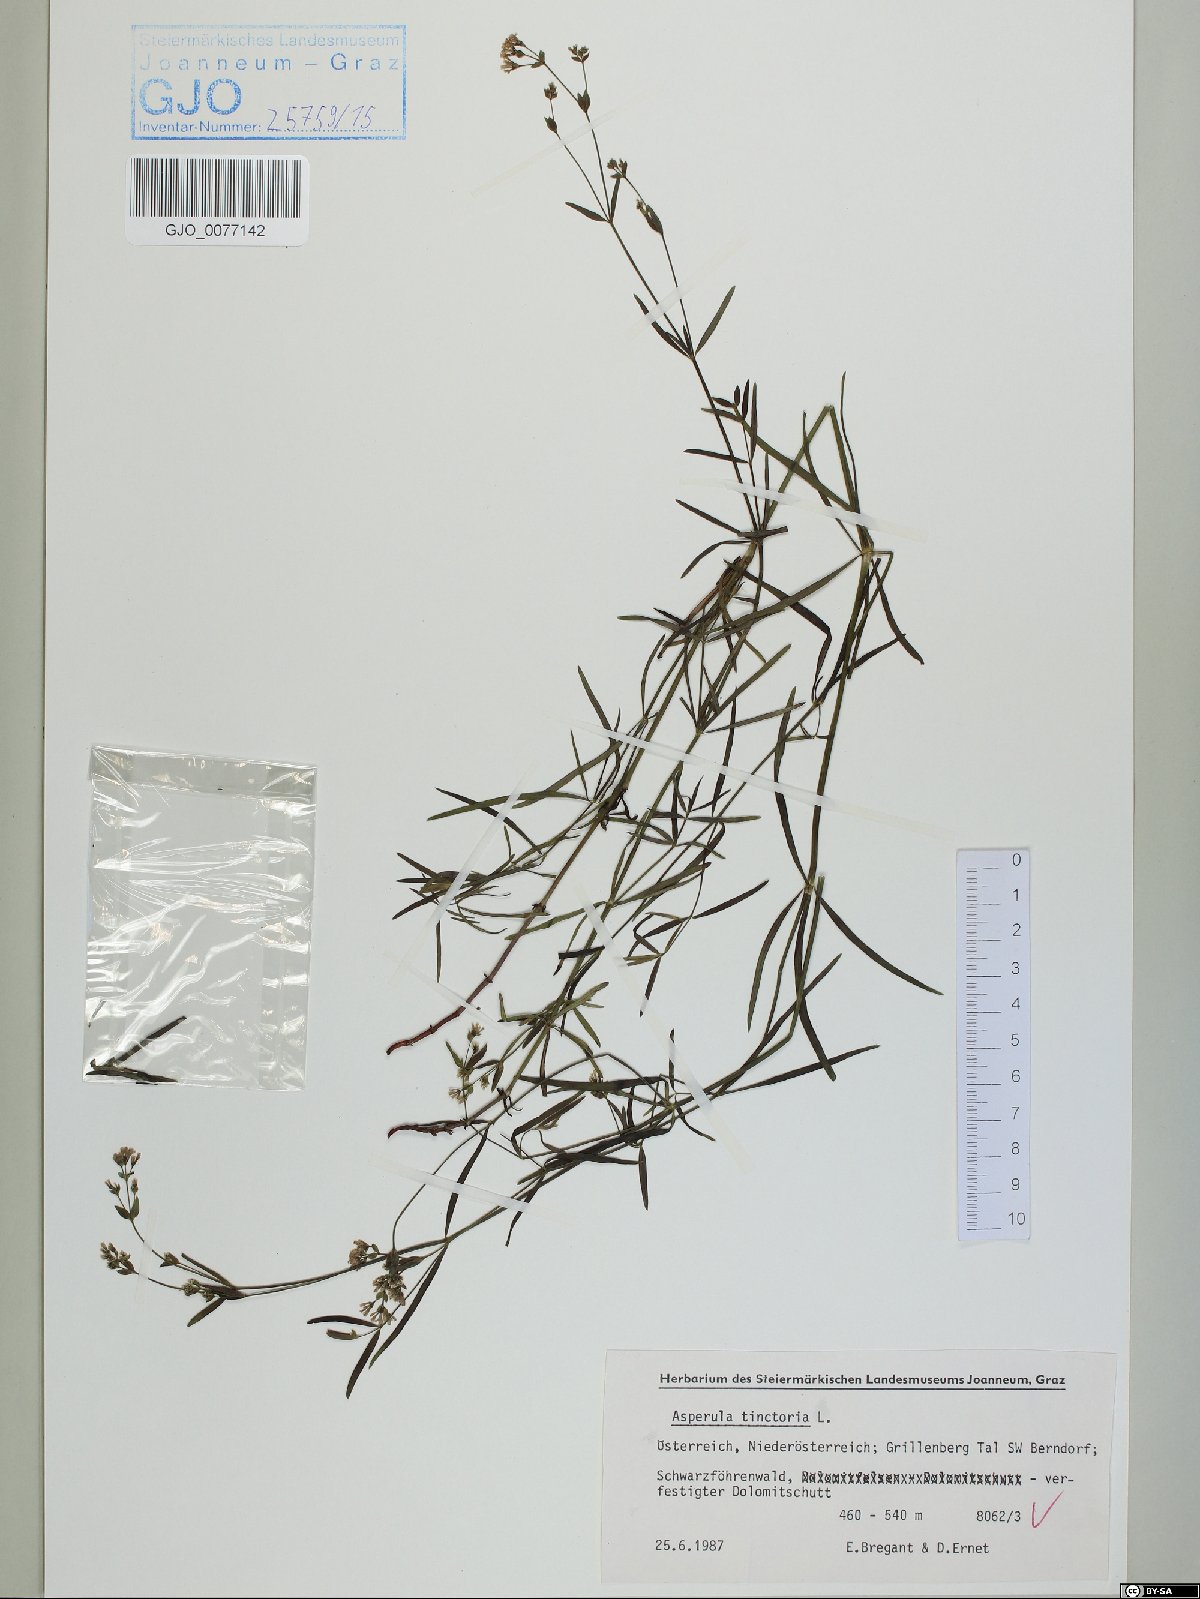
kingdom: Plantae
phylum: Tracheophyta
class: Magnoliopsida
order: Gentianales
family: Rubiaceae
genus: Asperula
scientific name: Asperula tinctoria
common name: Dyer's woodruff
